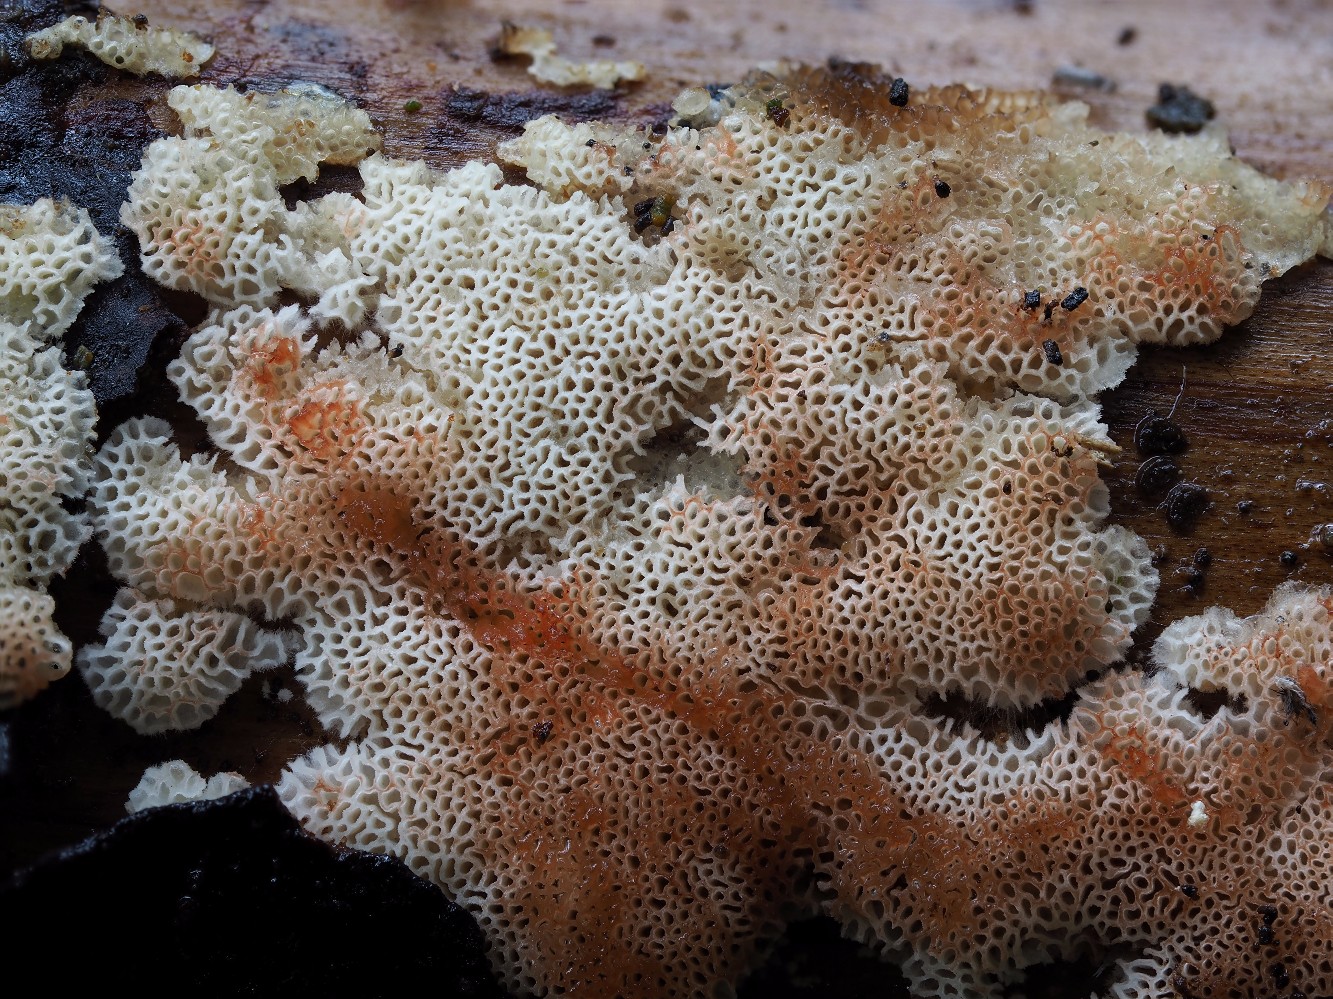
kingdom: Fungi
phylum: Basidiomycota
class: Agaricomycetes
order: Polyporales
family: Meripilaceae
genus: Rigidoporus
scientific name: Rigidoporus sanguinolentus
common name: blod-skorpeporesvamp
